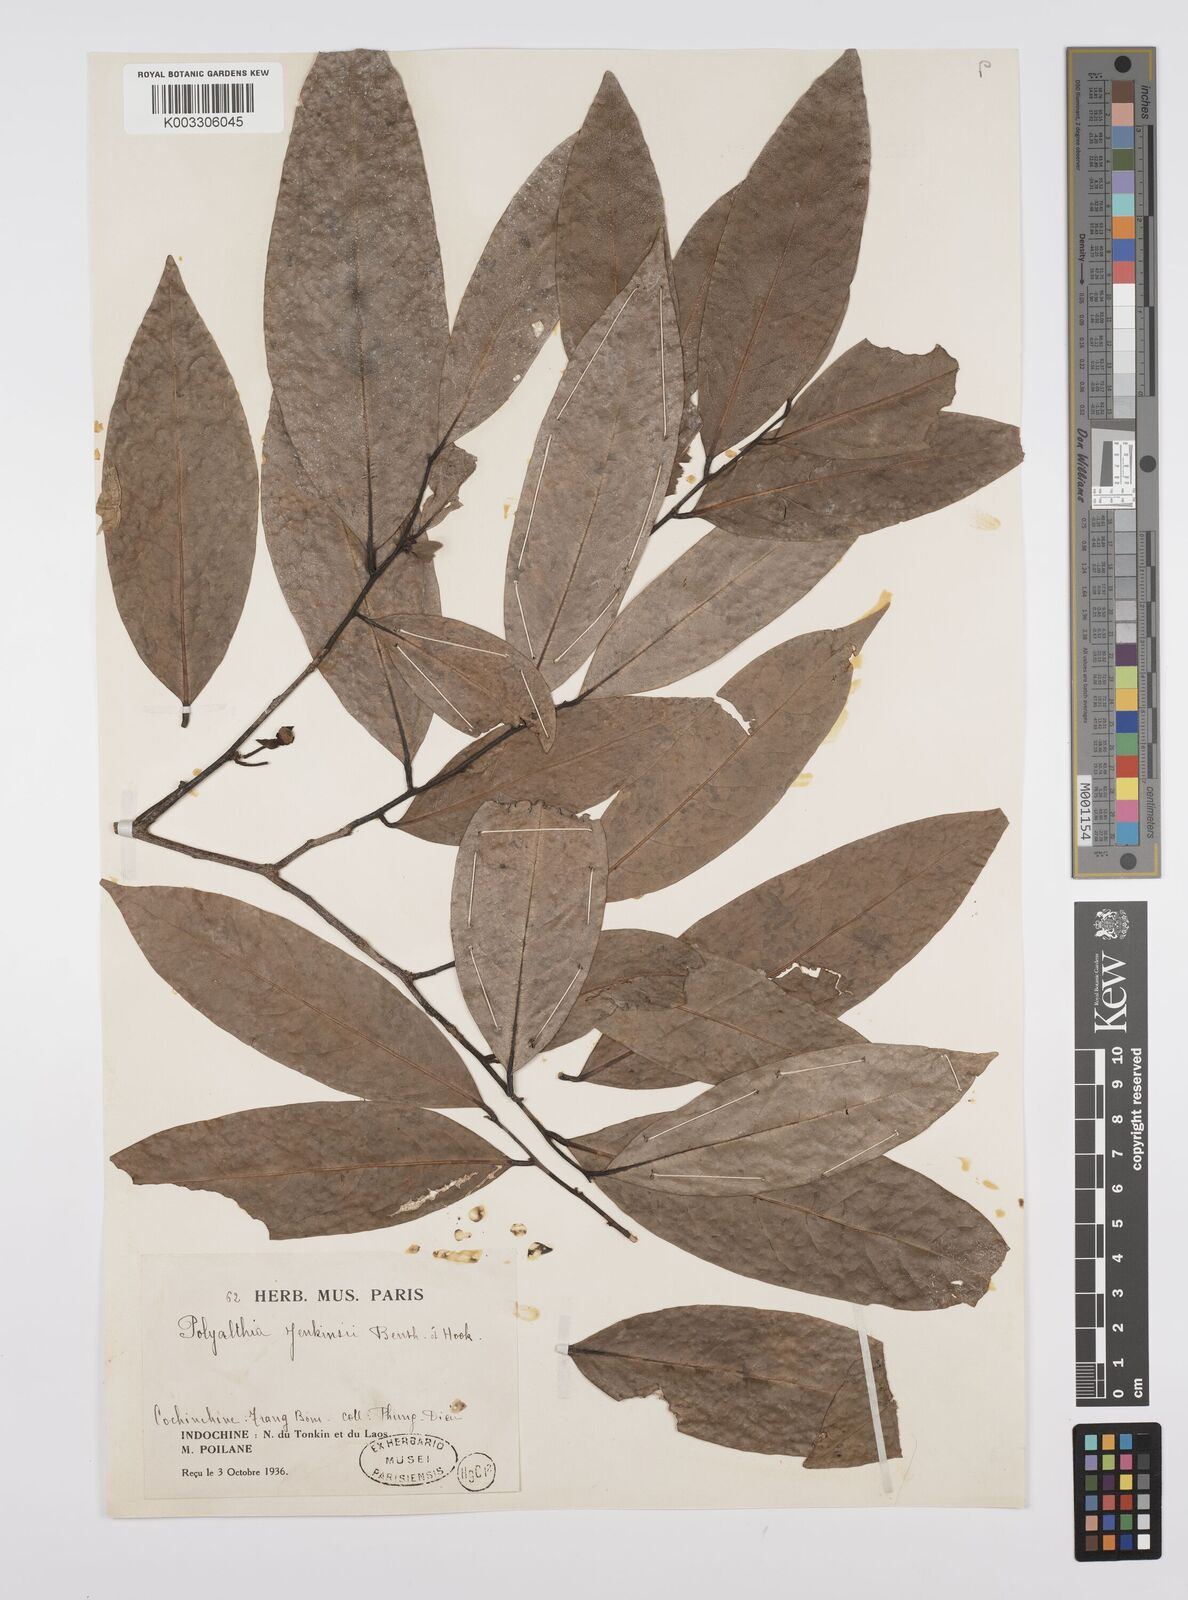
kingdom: Plantae
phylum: Tracheophyta
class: Magnoliopsida
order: Magnoliales
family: Annonaceae
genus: Hubera
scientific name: Hubera jenkinsii
